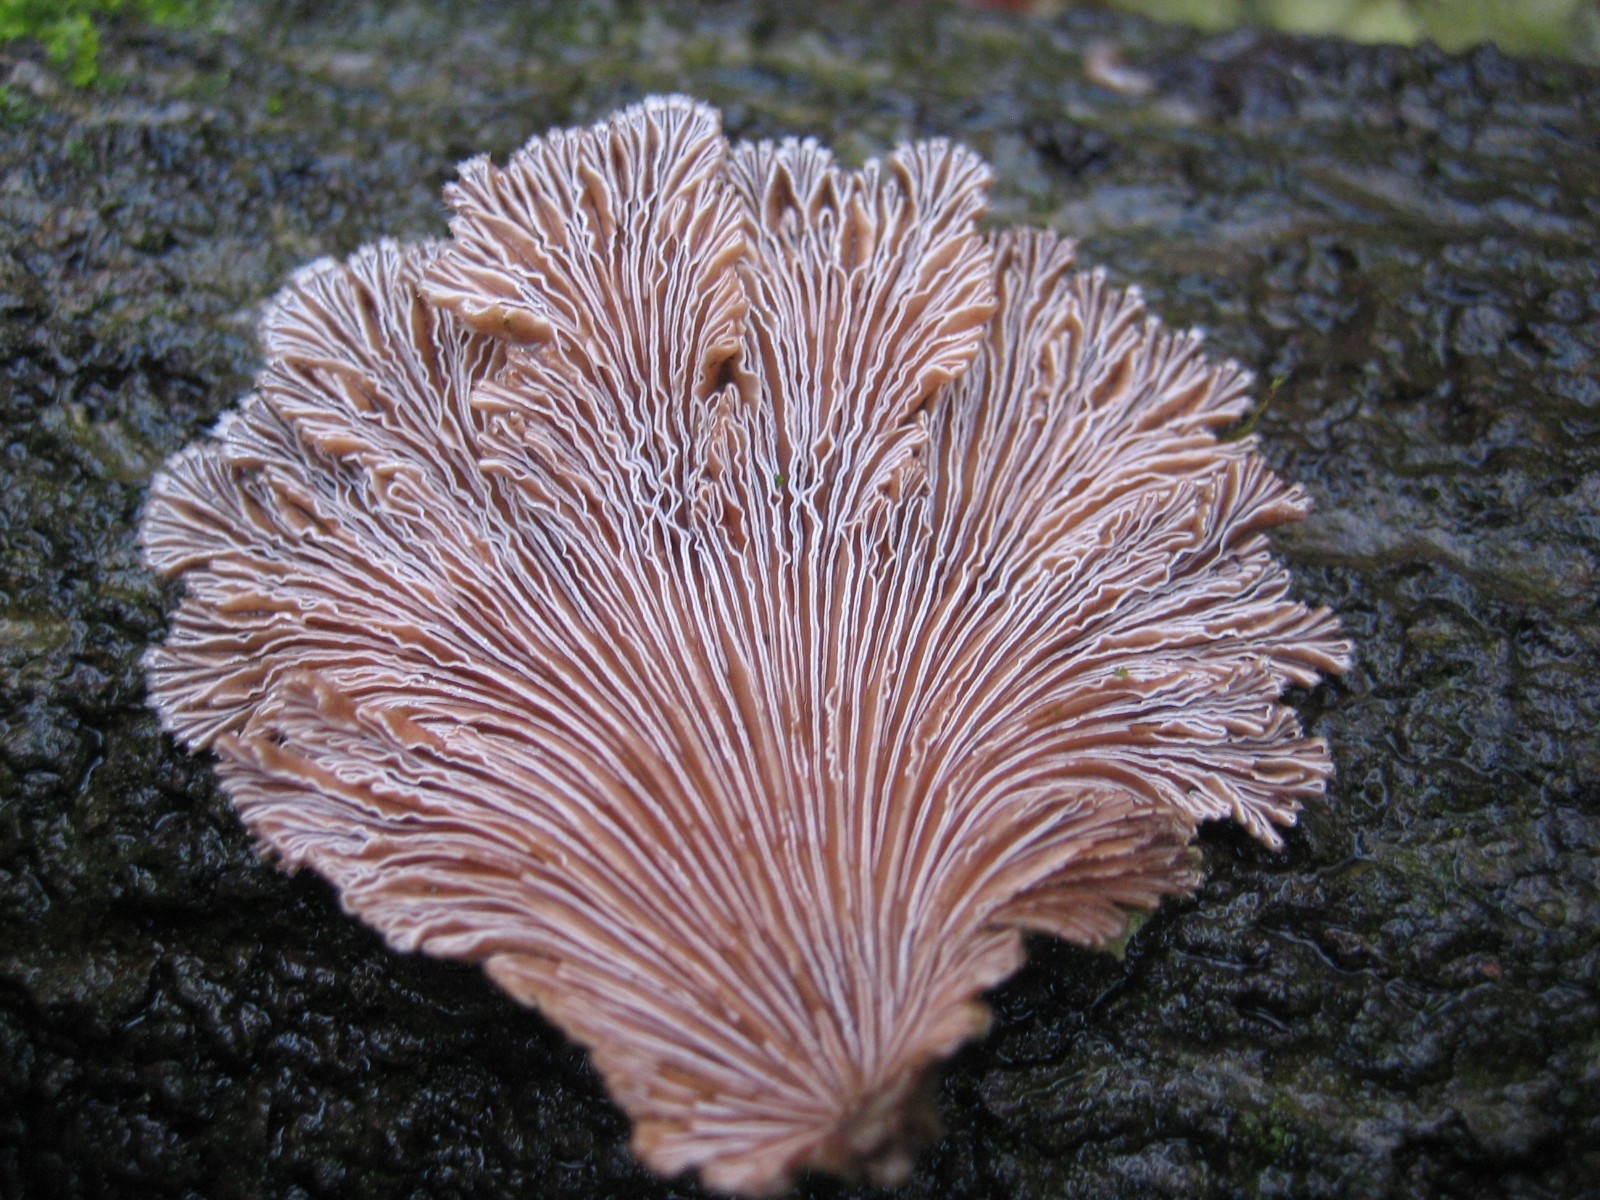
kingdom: Fungi
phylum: Basidiomycota
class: Agaricomycetes
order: Agaricales
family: Schizophyllaceae
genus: Schizophyllum
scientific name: Schizophyllum commune
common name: kløvblad
